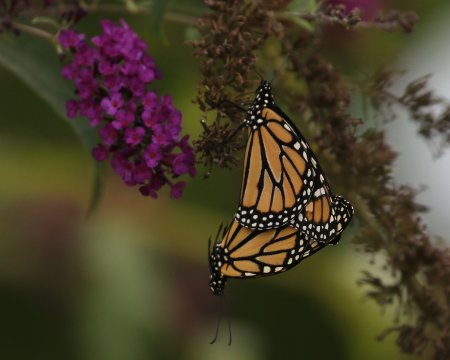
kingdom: Animalia
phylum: Arthropoda
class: Insecta
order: Lepidoptera
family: Nymphalidae
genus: Danaus
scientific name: Danaus plexippus
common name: Monarch
